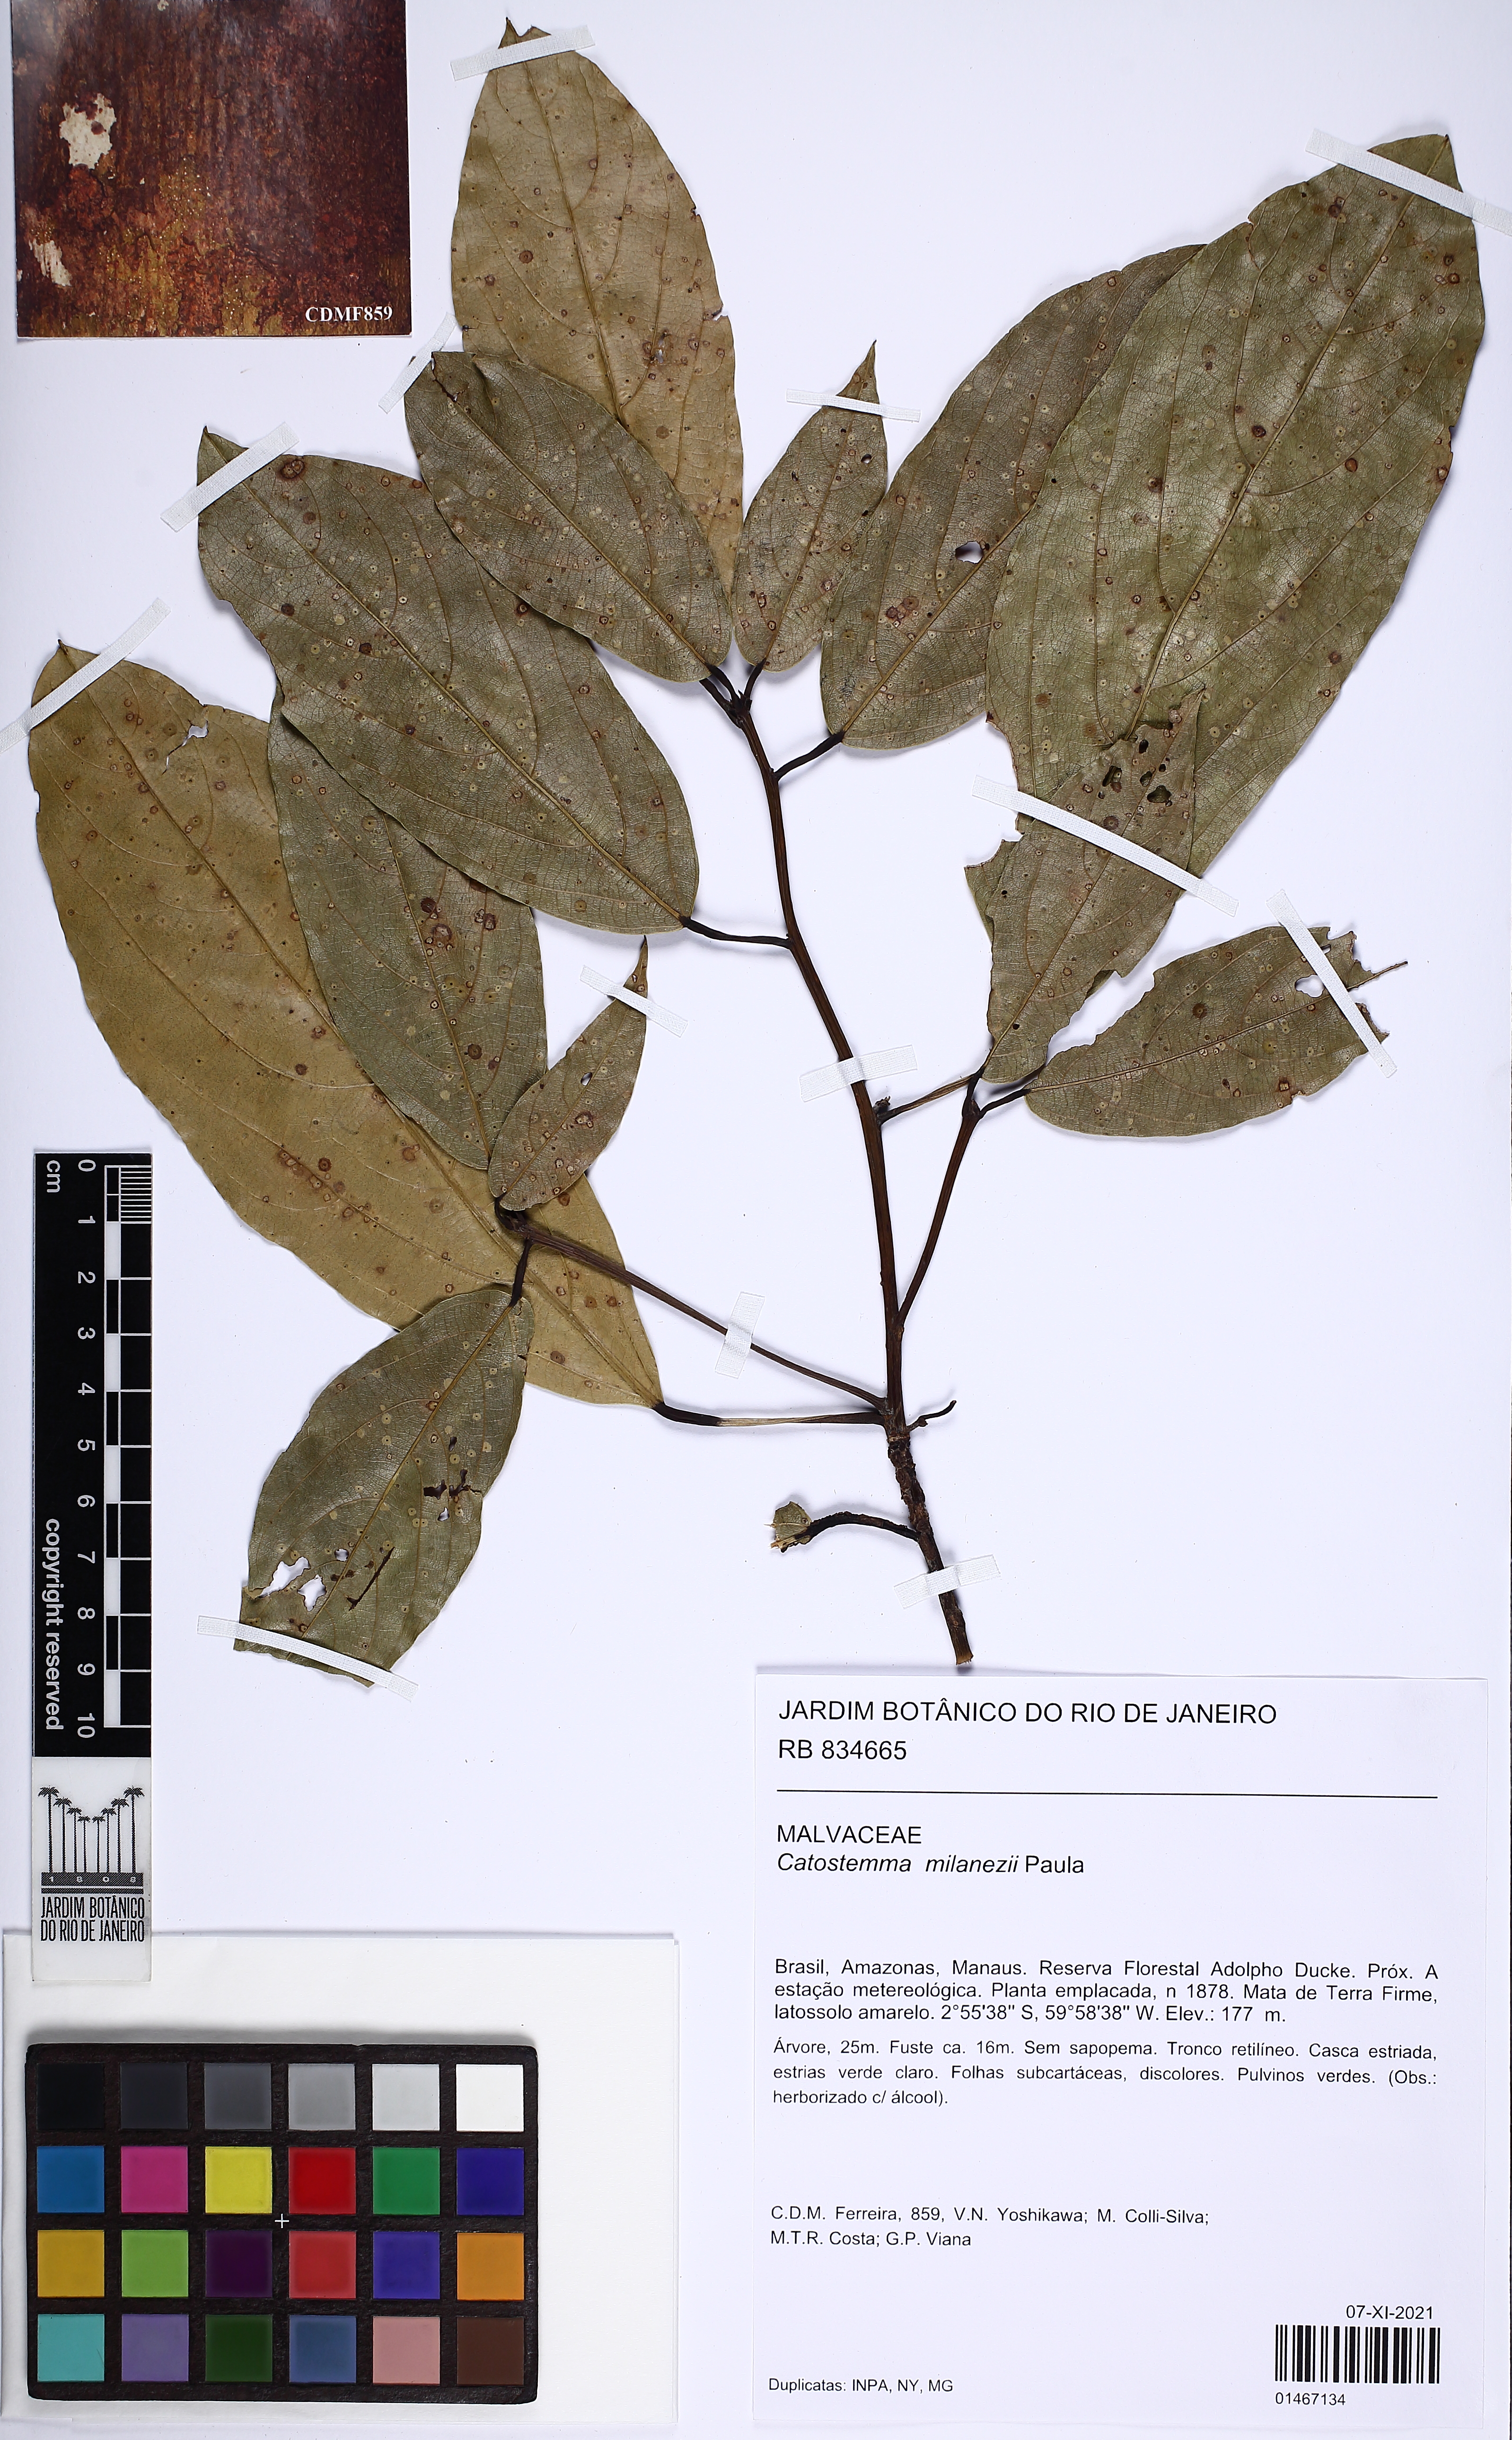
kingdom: Plantae
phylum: Tracheophyta
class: Magnoliopsida
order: Malvales
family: Malvaceae
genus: Catostemma
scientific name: Catostemma milanezii
